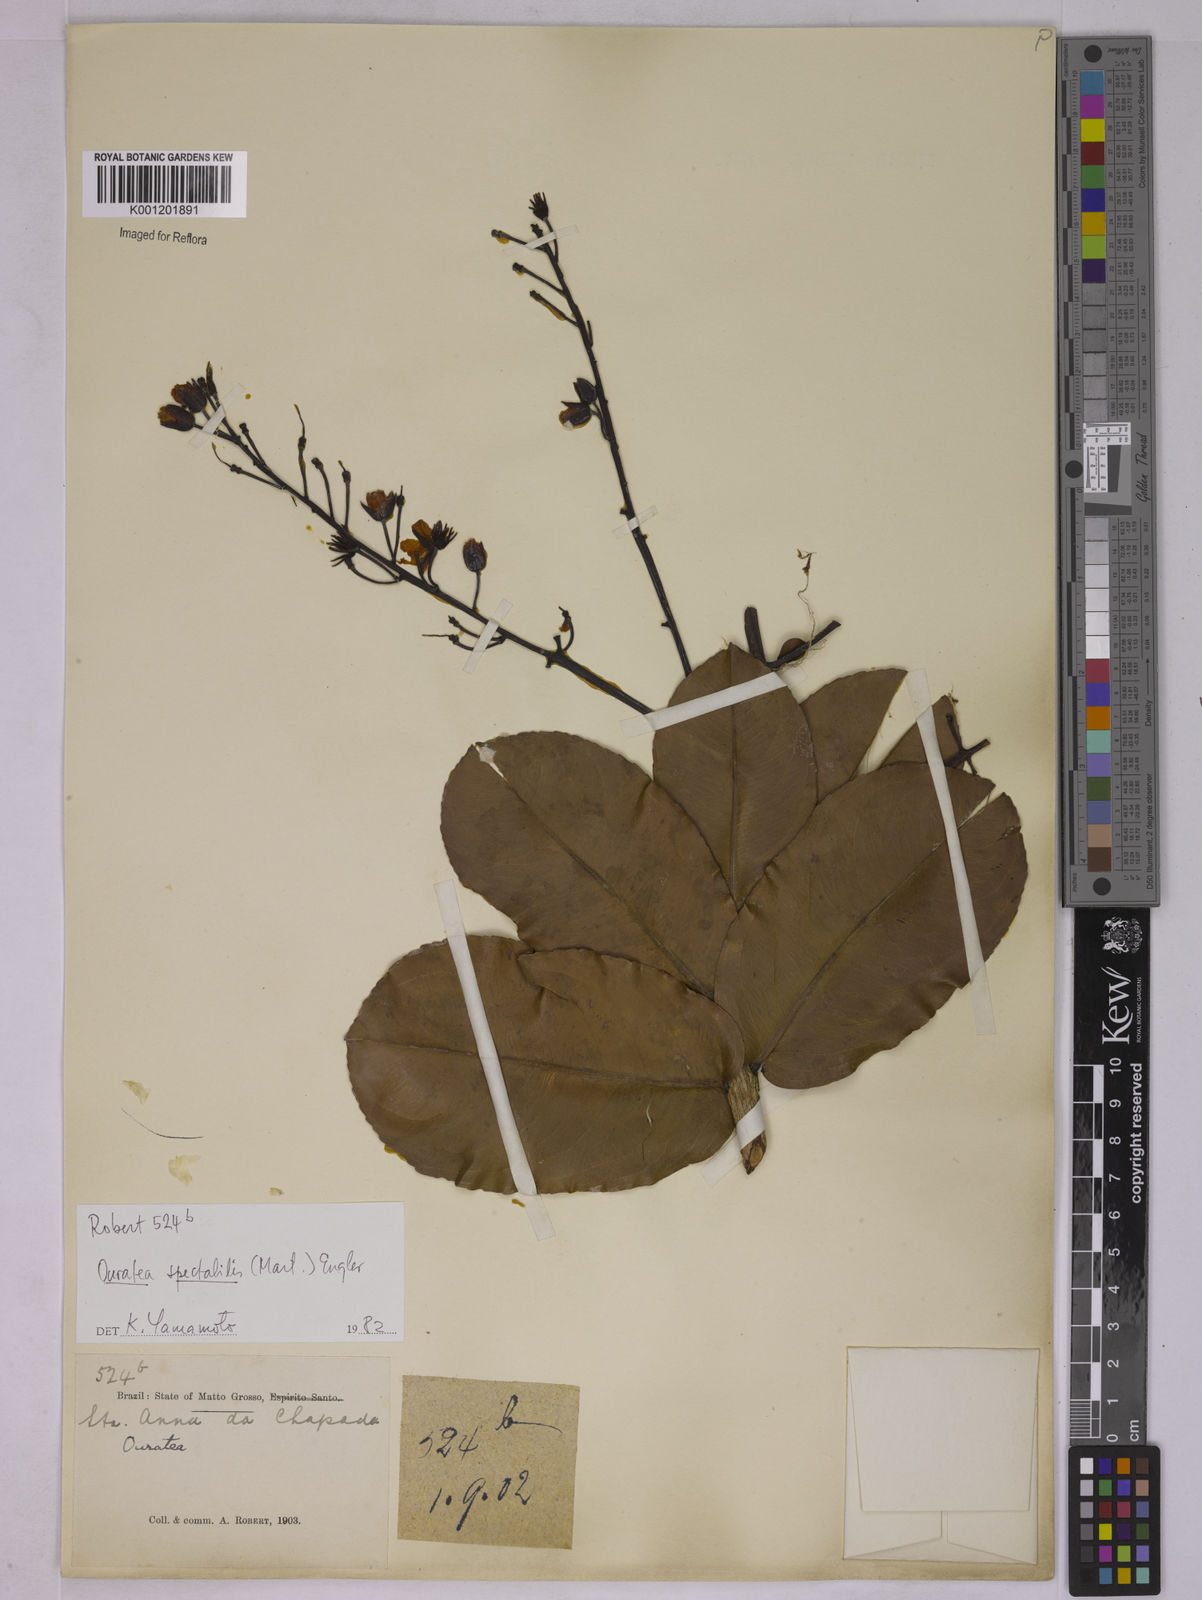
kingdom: Plantae
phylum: Tracheophyta
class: Magnoliopsida
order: Malpighiales
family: Ochnaceae
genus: Ouratea
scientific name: Ouratea spectabilis
